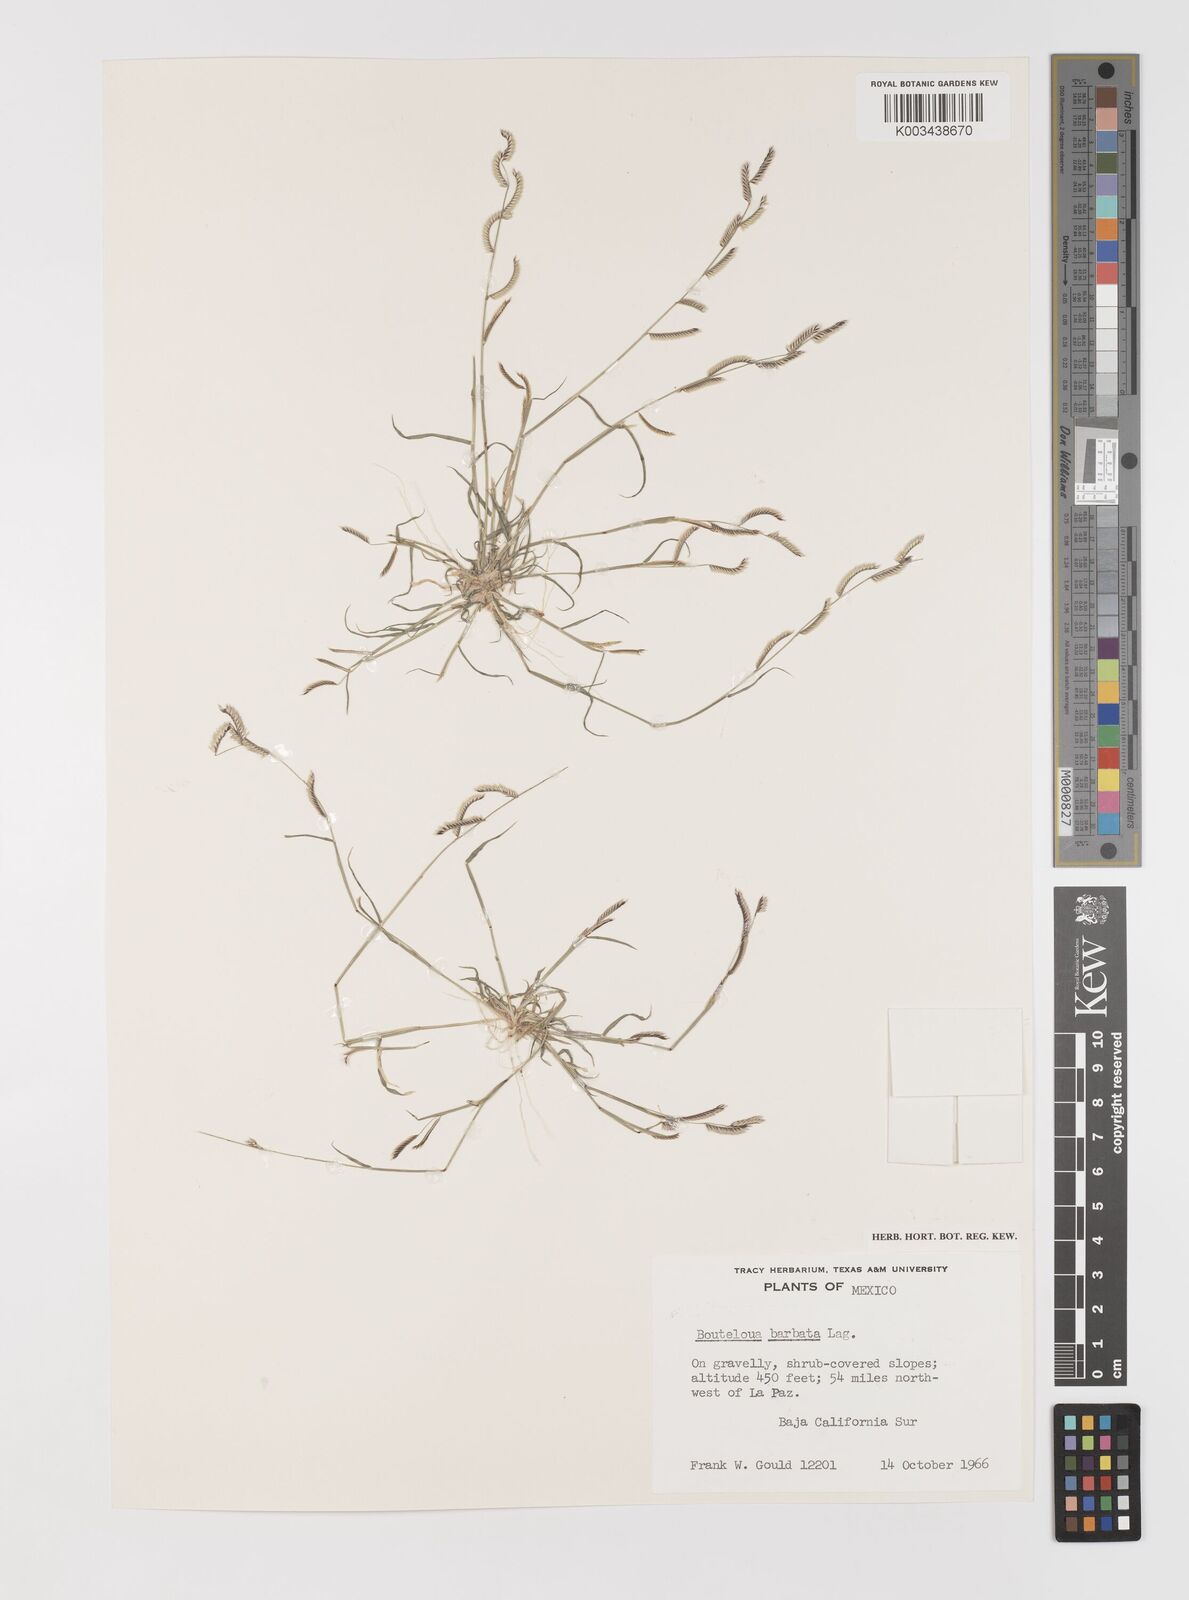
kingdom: Plantae
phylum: Tracheophyta
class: Liliopsida
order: Poales
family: Poaceae
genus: Bouteloua
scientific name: Bouteloua
